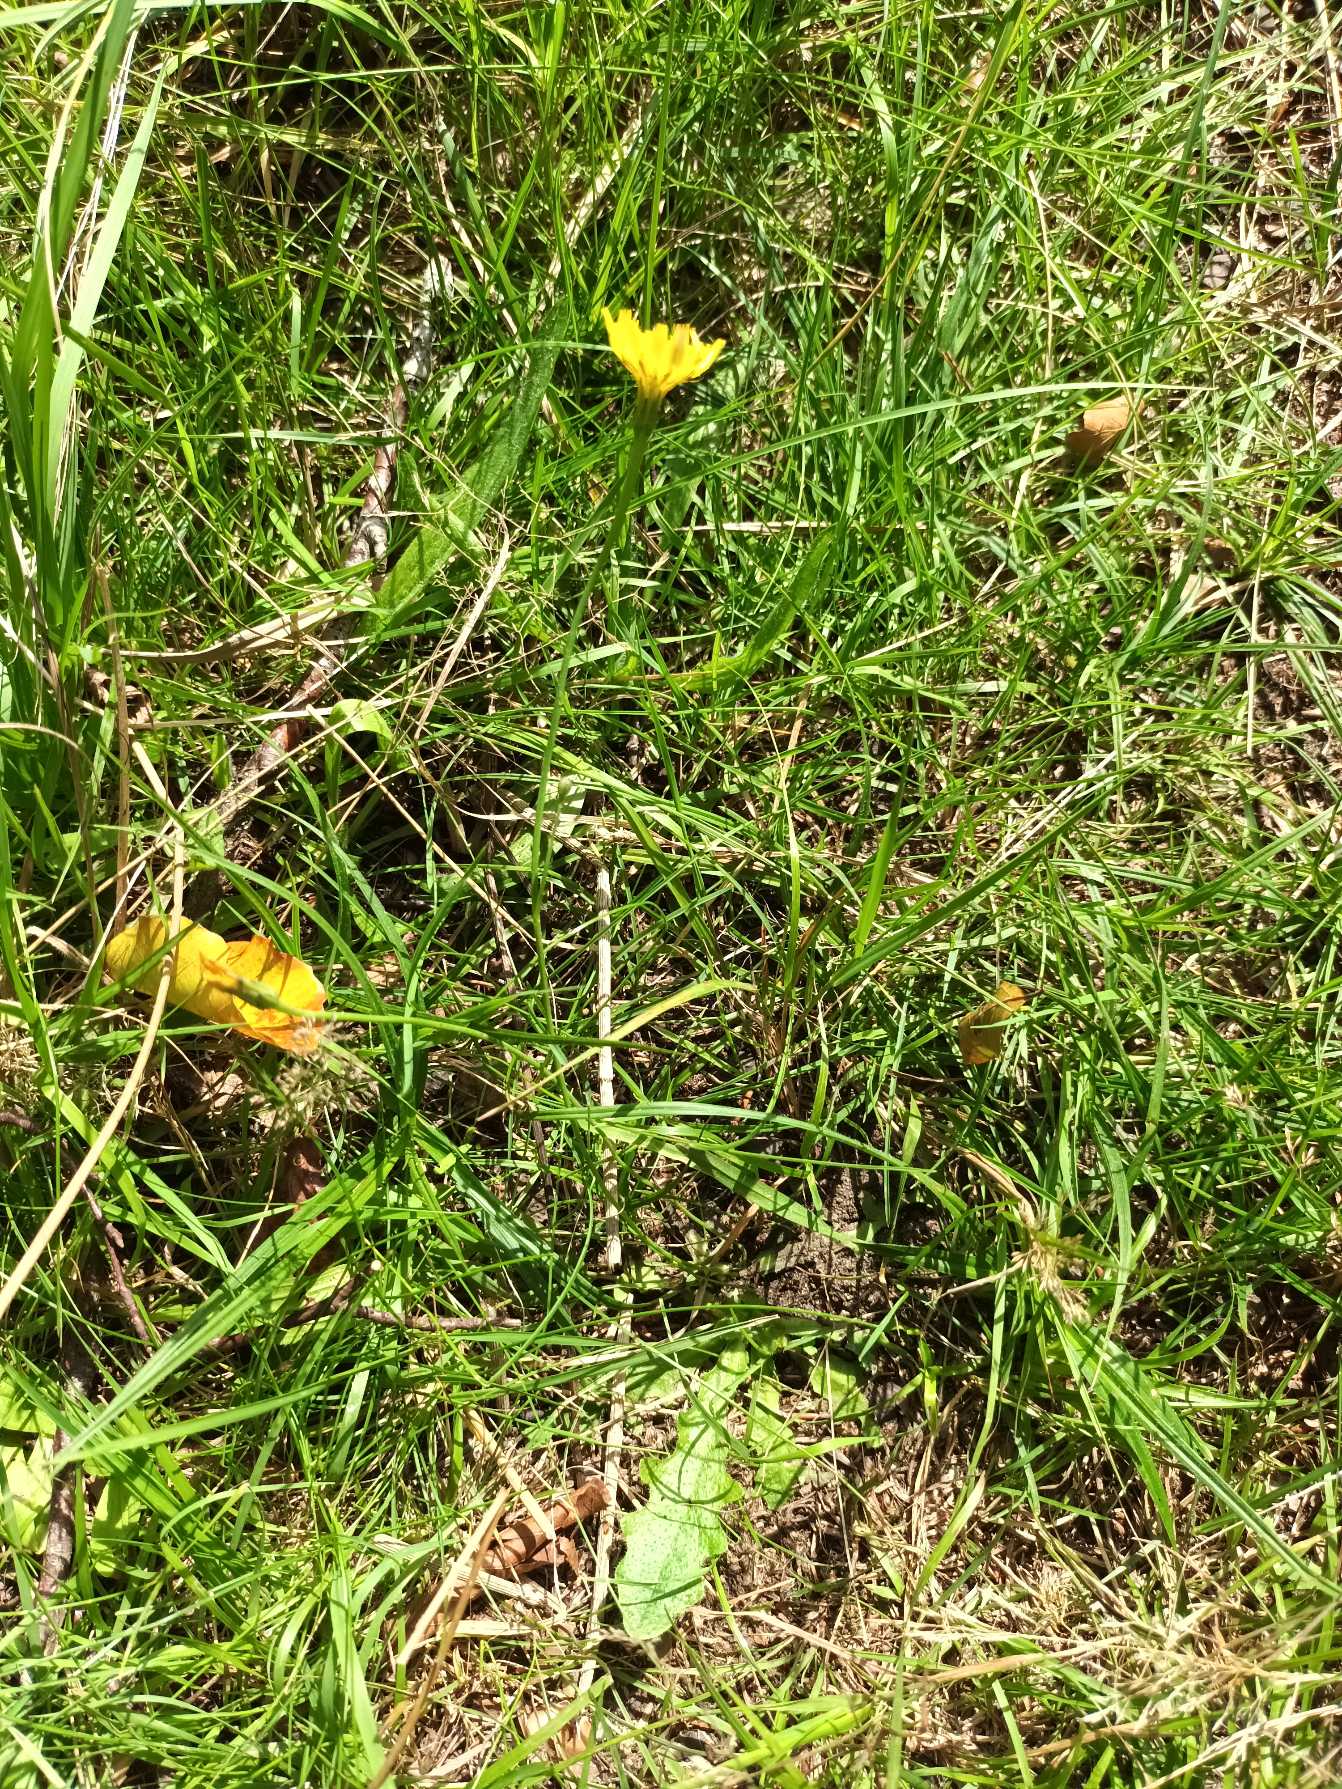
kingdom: Plantae
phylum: Tracheophyta
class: Magnoliopsida
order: Asterales
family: Asteraceae
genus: Hypochaeris
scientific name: Hypochaeris radicata
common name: Almindelig kongepen
